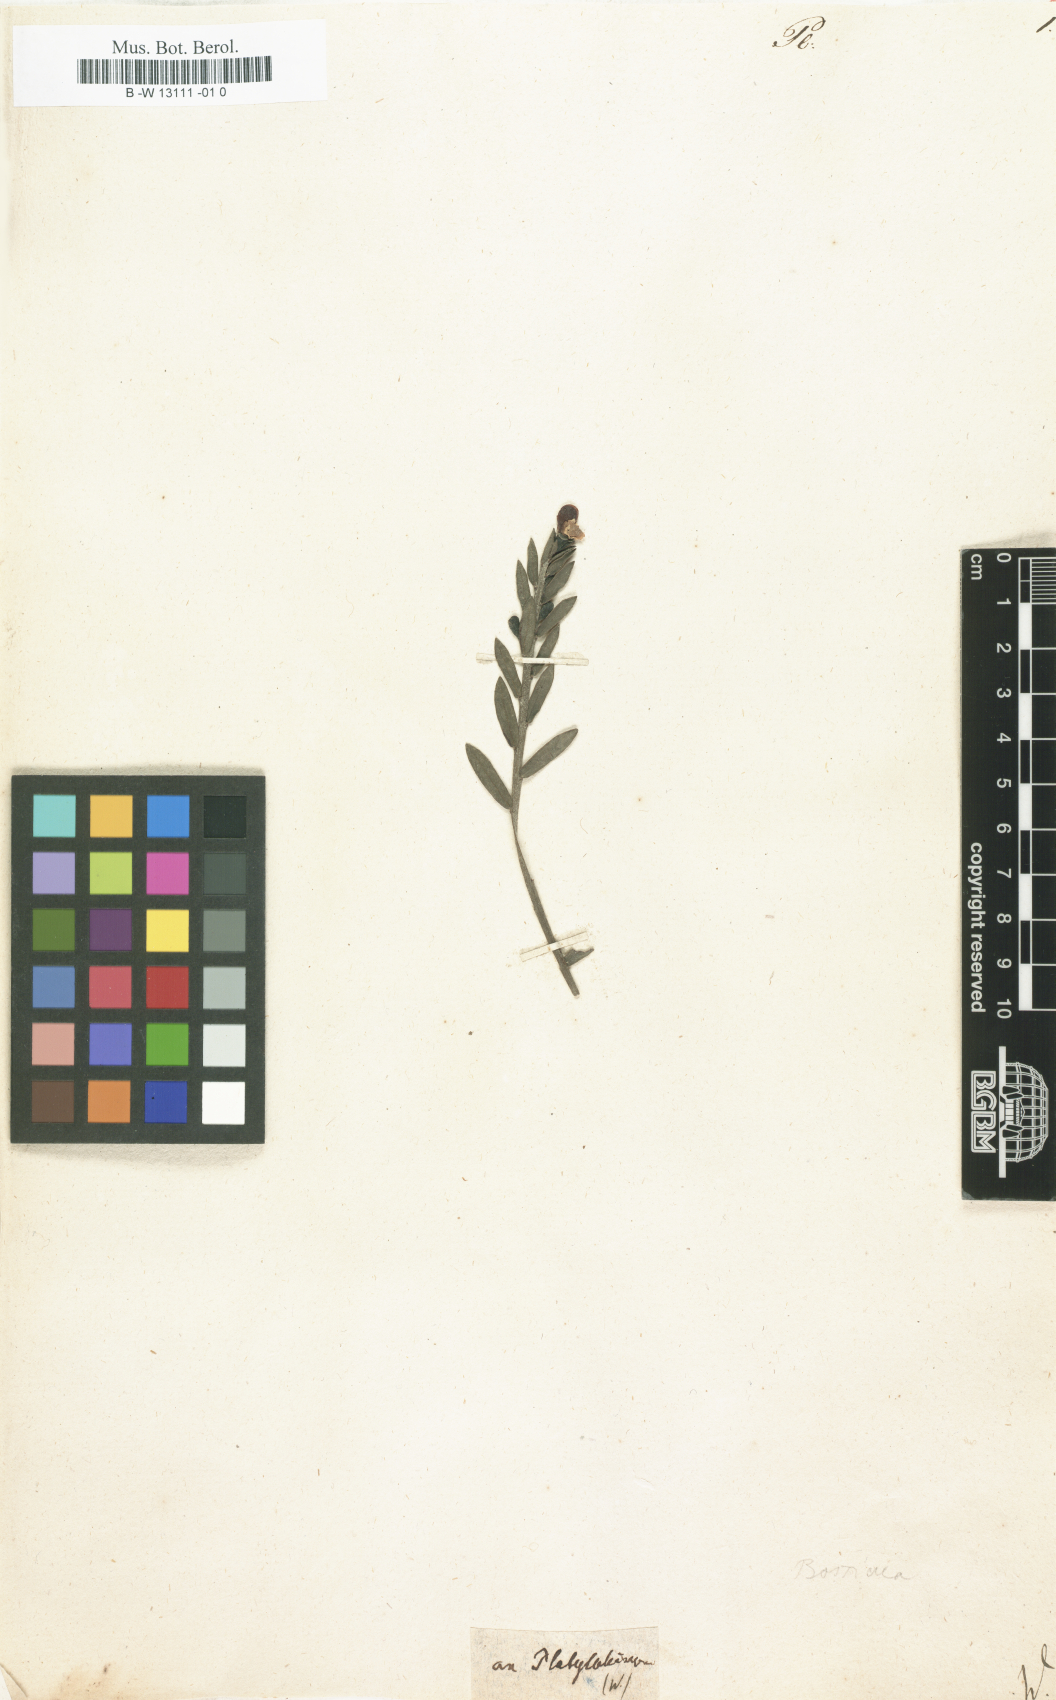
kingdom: Plantae
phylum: Tracheophyta
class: Magnoliopsida
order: Fabales
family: Fabaceae
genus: Platylobium
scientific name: Platylobium
